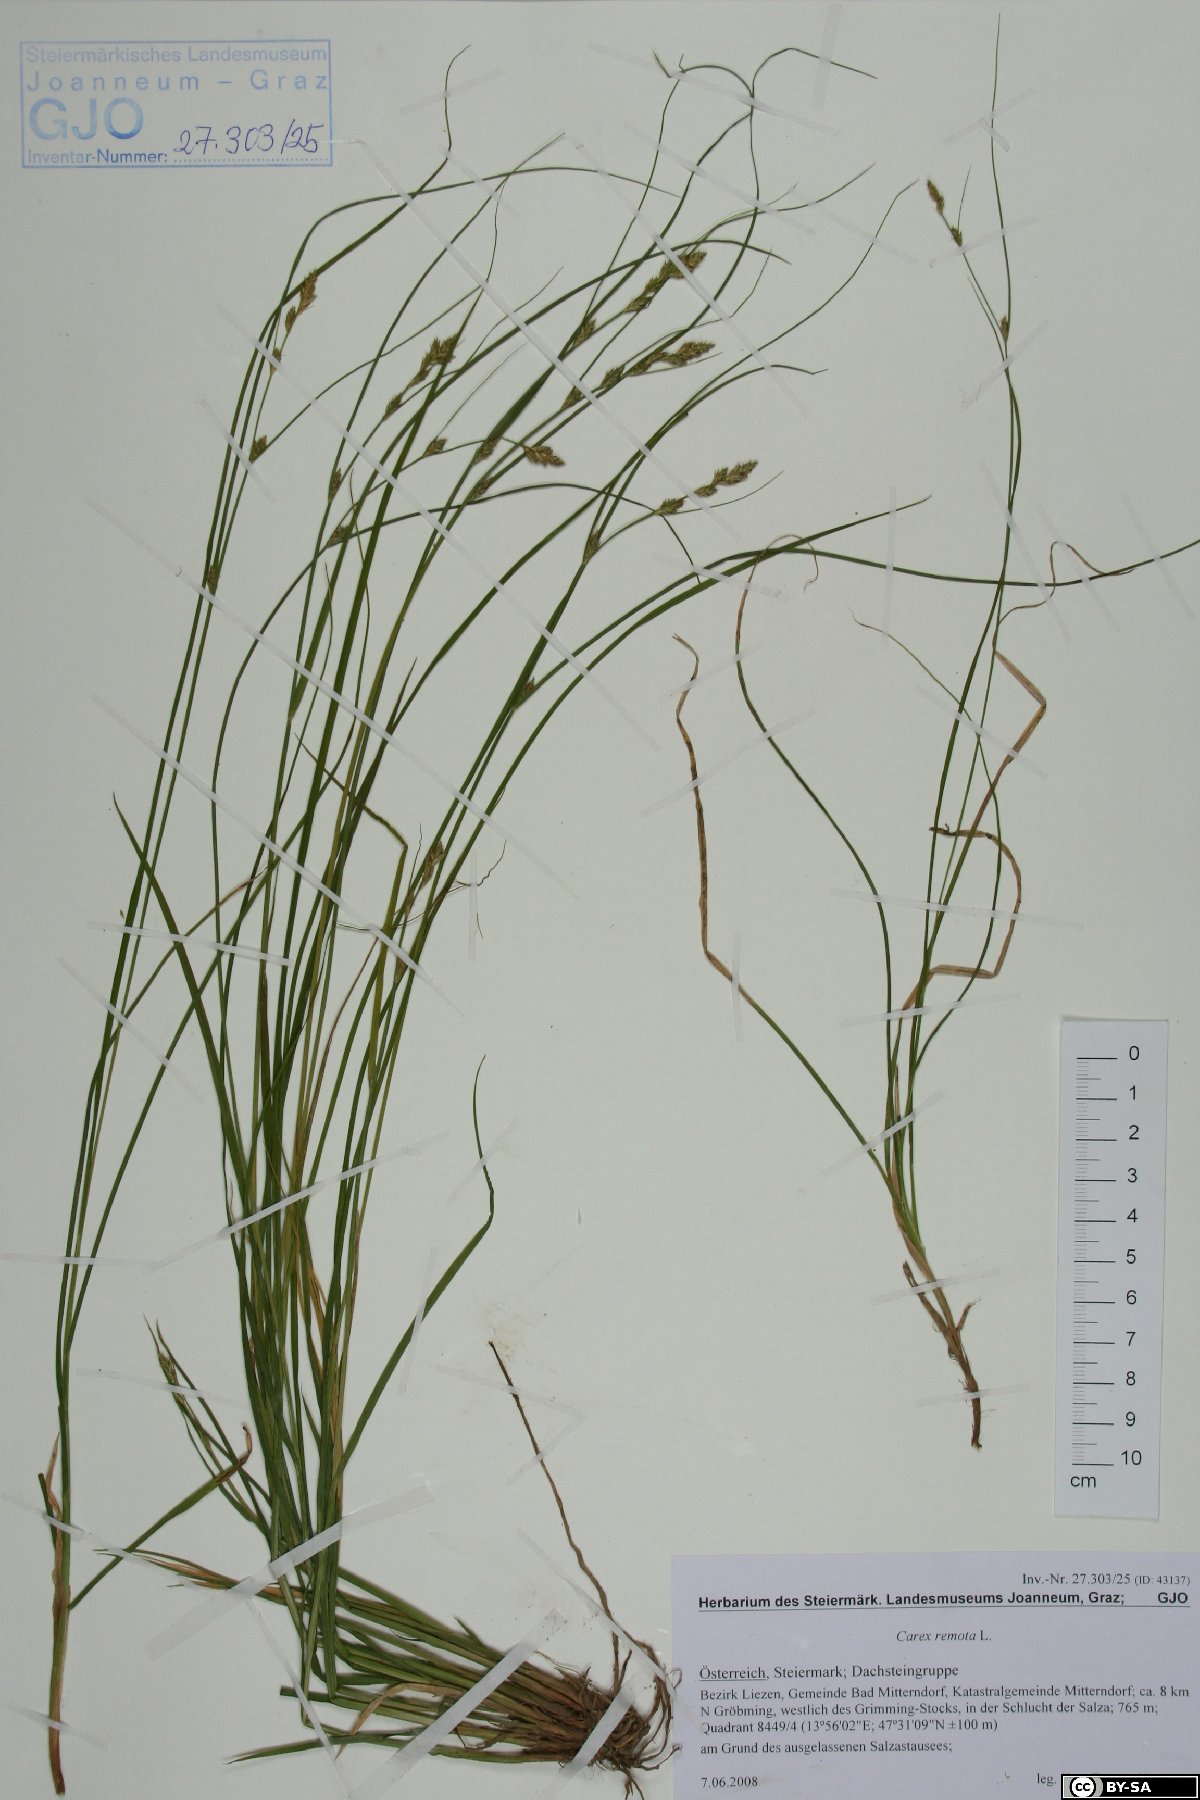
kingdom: Plantae
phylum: Tracheophyta
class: Liliopsida
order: Poales
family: Cyperaceae
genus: Carex
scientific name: Carex remota
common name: Remote sedge
